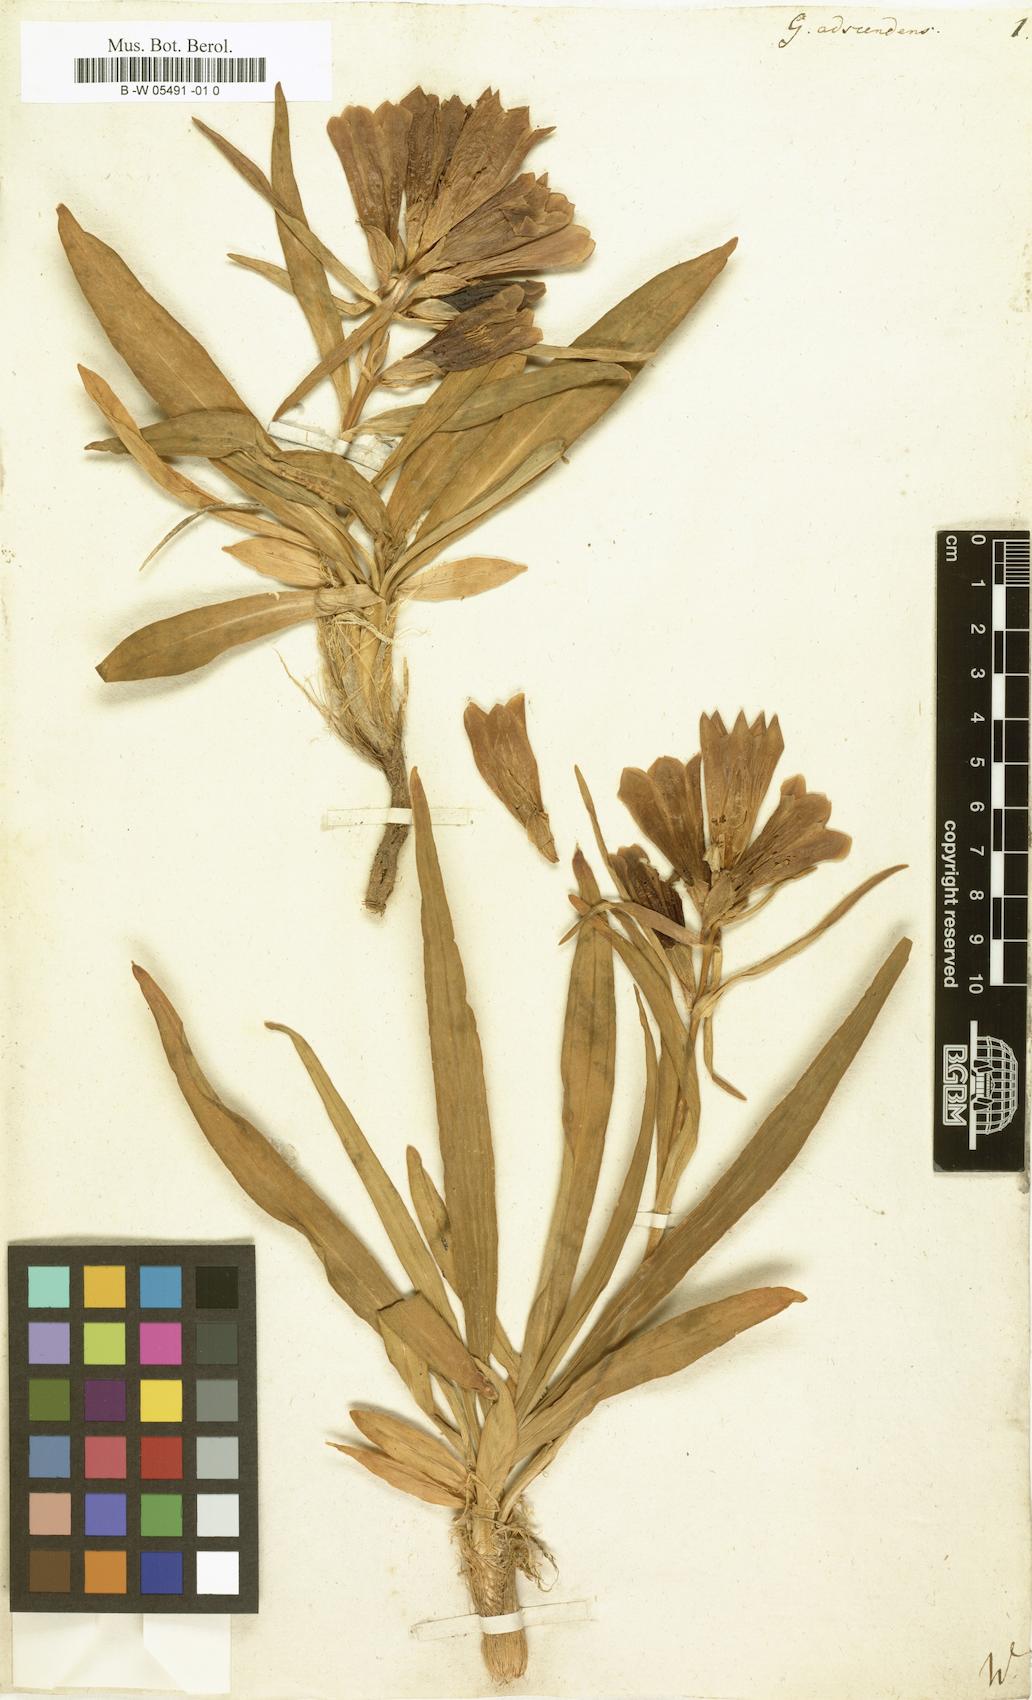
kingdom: Plantae
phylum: Tracheophyta
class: Magnoliopsida
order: Gentianales
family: Gentianaceae
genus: Gentiana
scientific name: Gentiana decumbens
